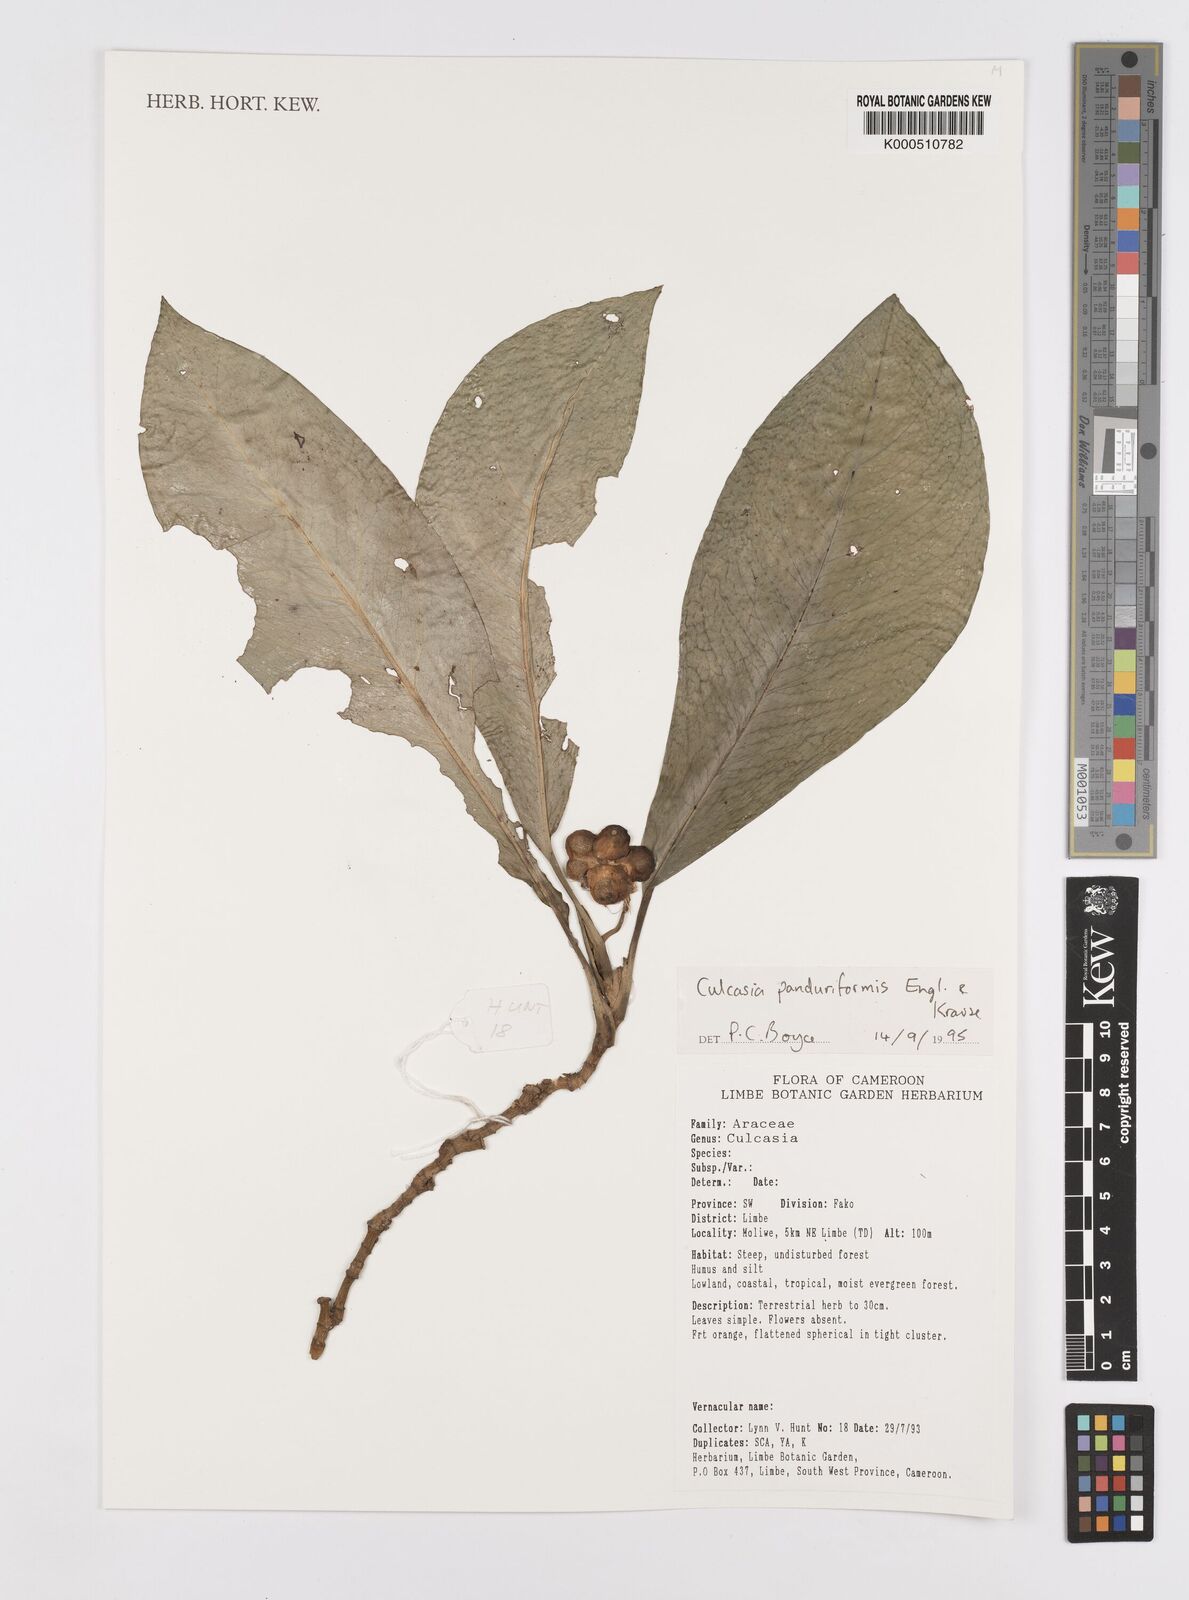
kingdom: Plantae
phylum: Tracheophyta
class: Liliopsida
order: Alismatales
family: Araceae
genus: Culcasia
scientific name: Culcasia panduriformis
